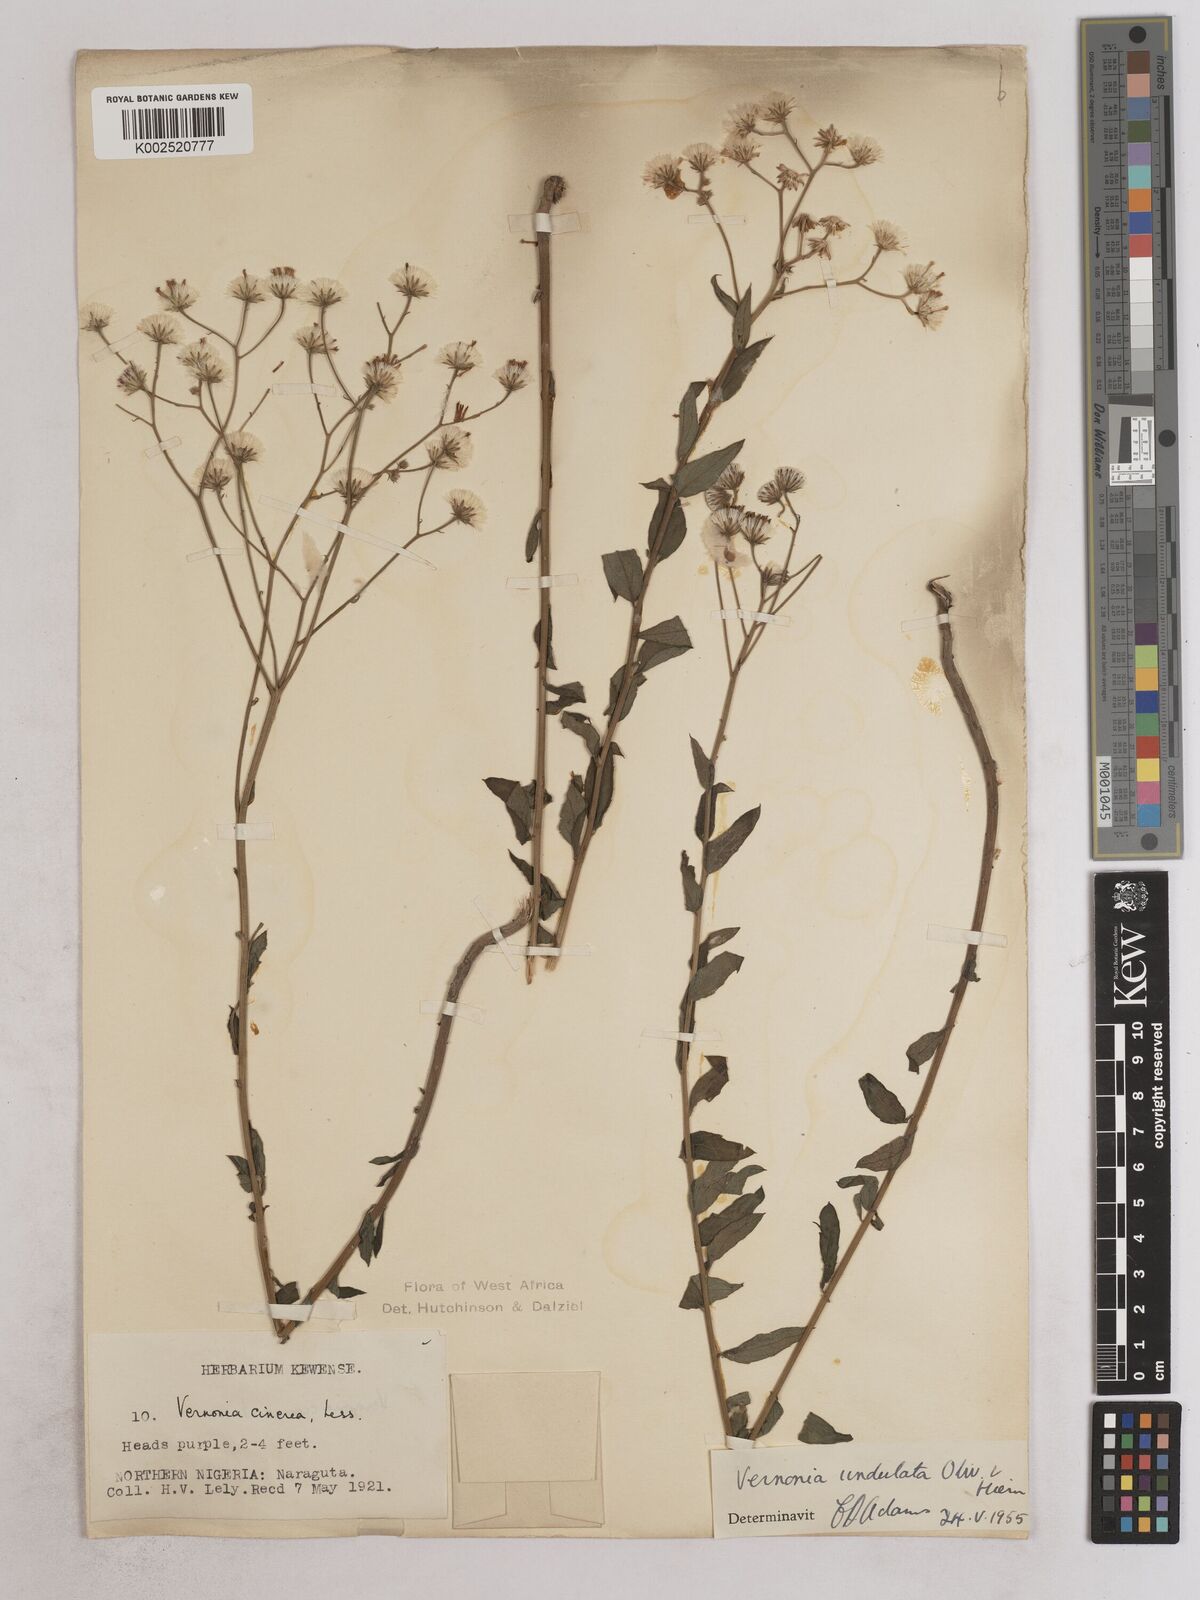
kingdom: Plantae
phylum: Tracheophyta
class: Magnoliopsida
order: Asterales
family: Asteraceae
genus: Vernonia
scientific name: Vernonia golungensis
